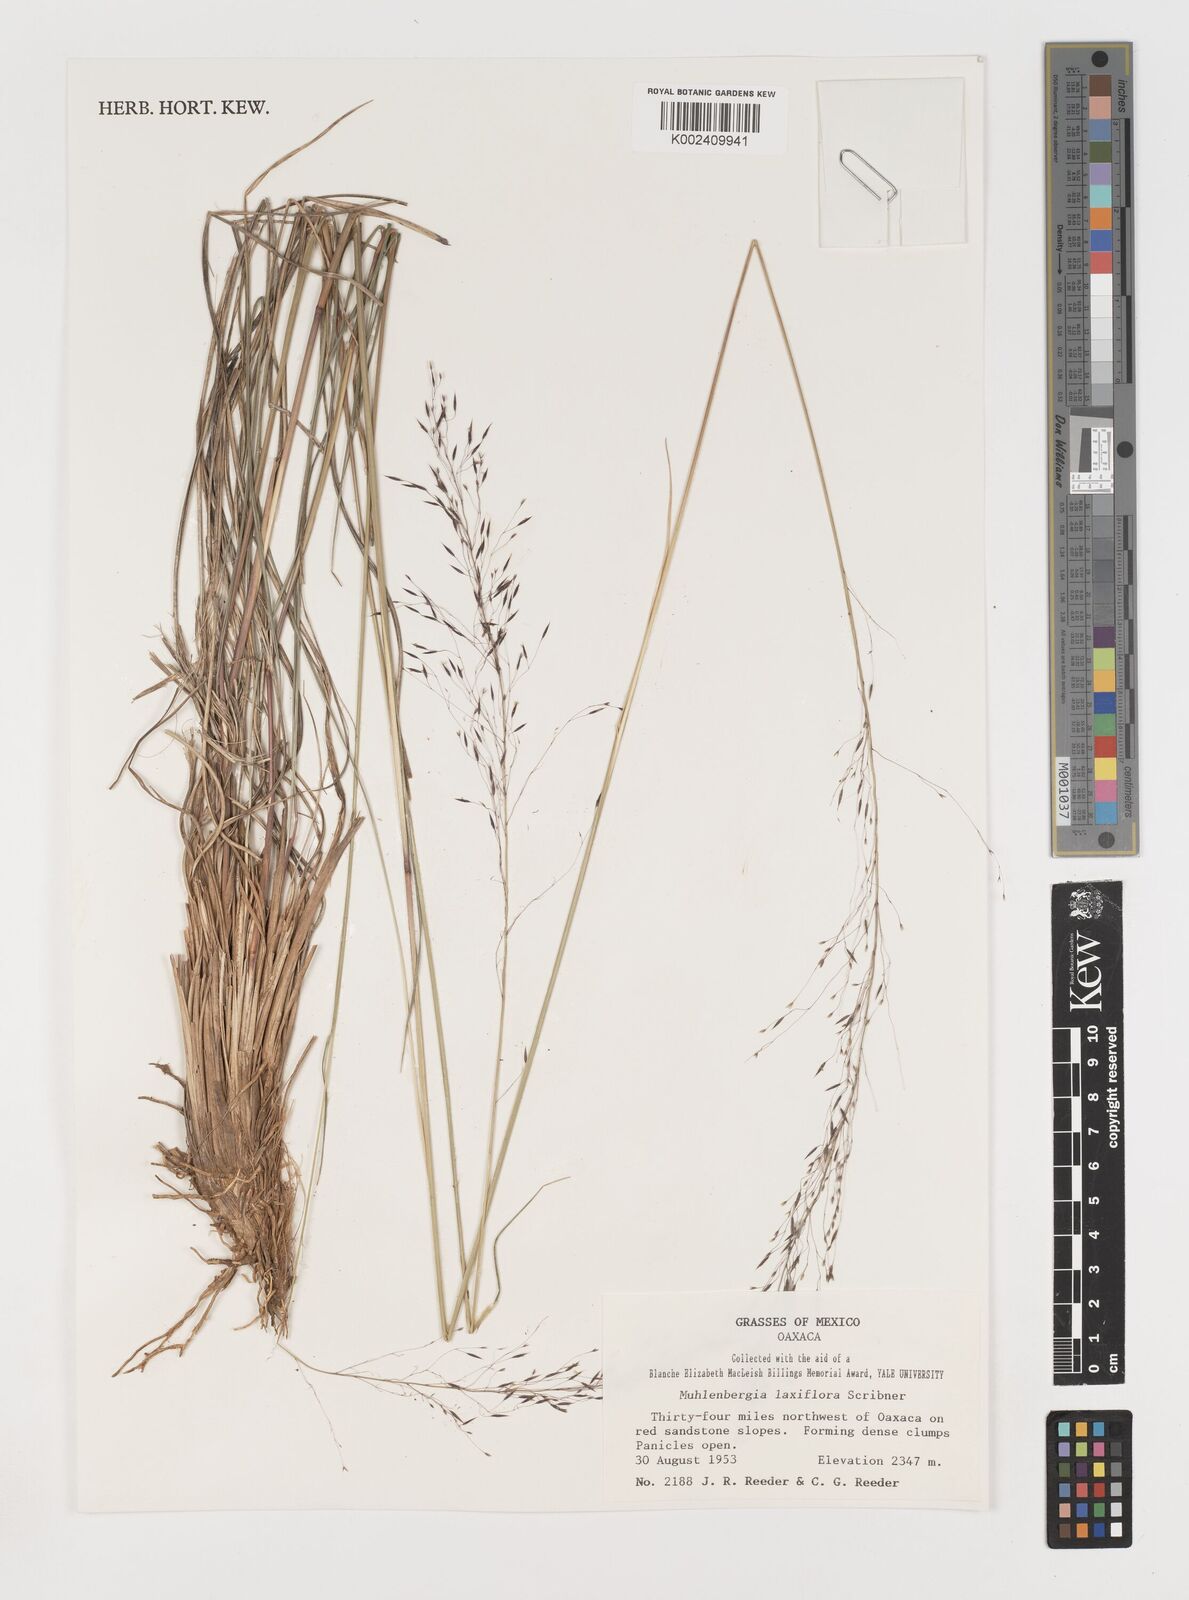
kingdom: Plantae
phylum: Tracheophyta
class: Liliopsida
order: Poales
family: Poaceae
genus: Muhlenbergia
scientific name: Muhlenbergia mucronata
